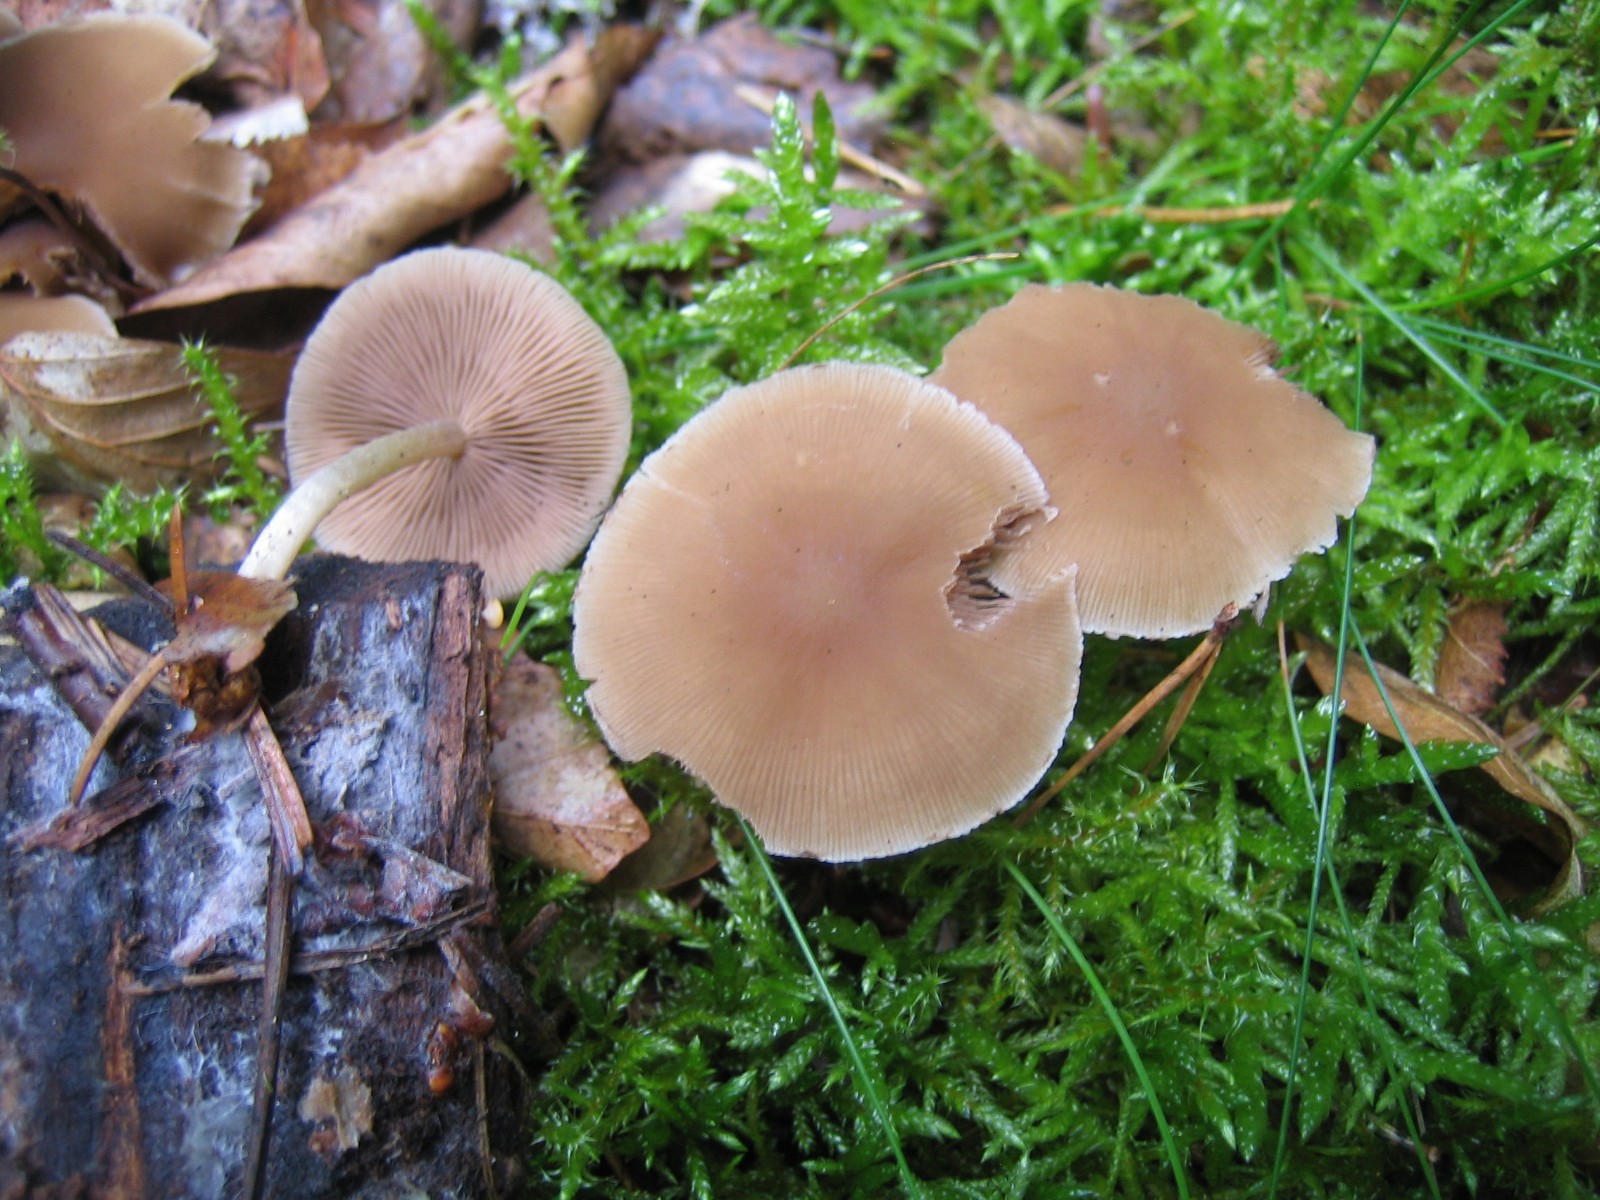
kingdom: Fungi
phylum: Basidiomycota
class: Agaricomycetes
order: Agaricales
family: Psathyrellaceae
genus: Psathyrella
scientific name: Psathyrella
